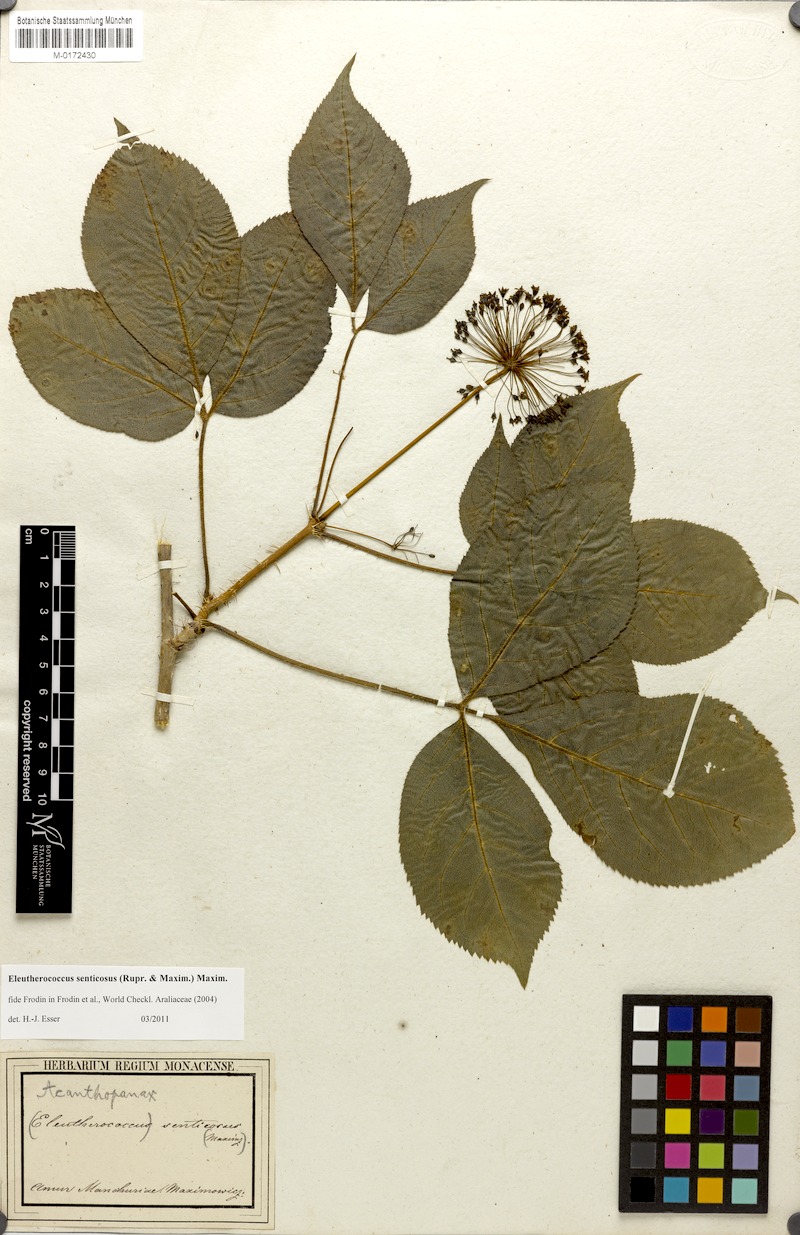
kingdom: Plantae
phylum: Tracheophyta
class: Magnoliopsida
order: Apiales
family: Araliaceae
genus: Eleutherococcus
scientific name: Eleutherococcus senticosus
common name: Siberian-ginseng
